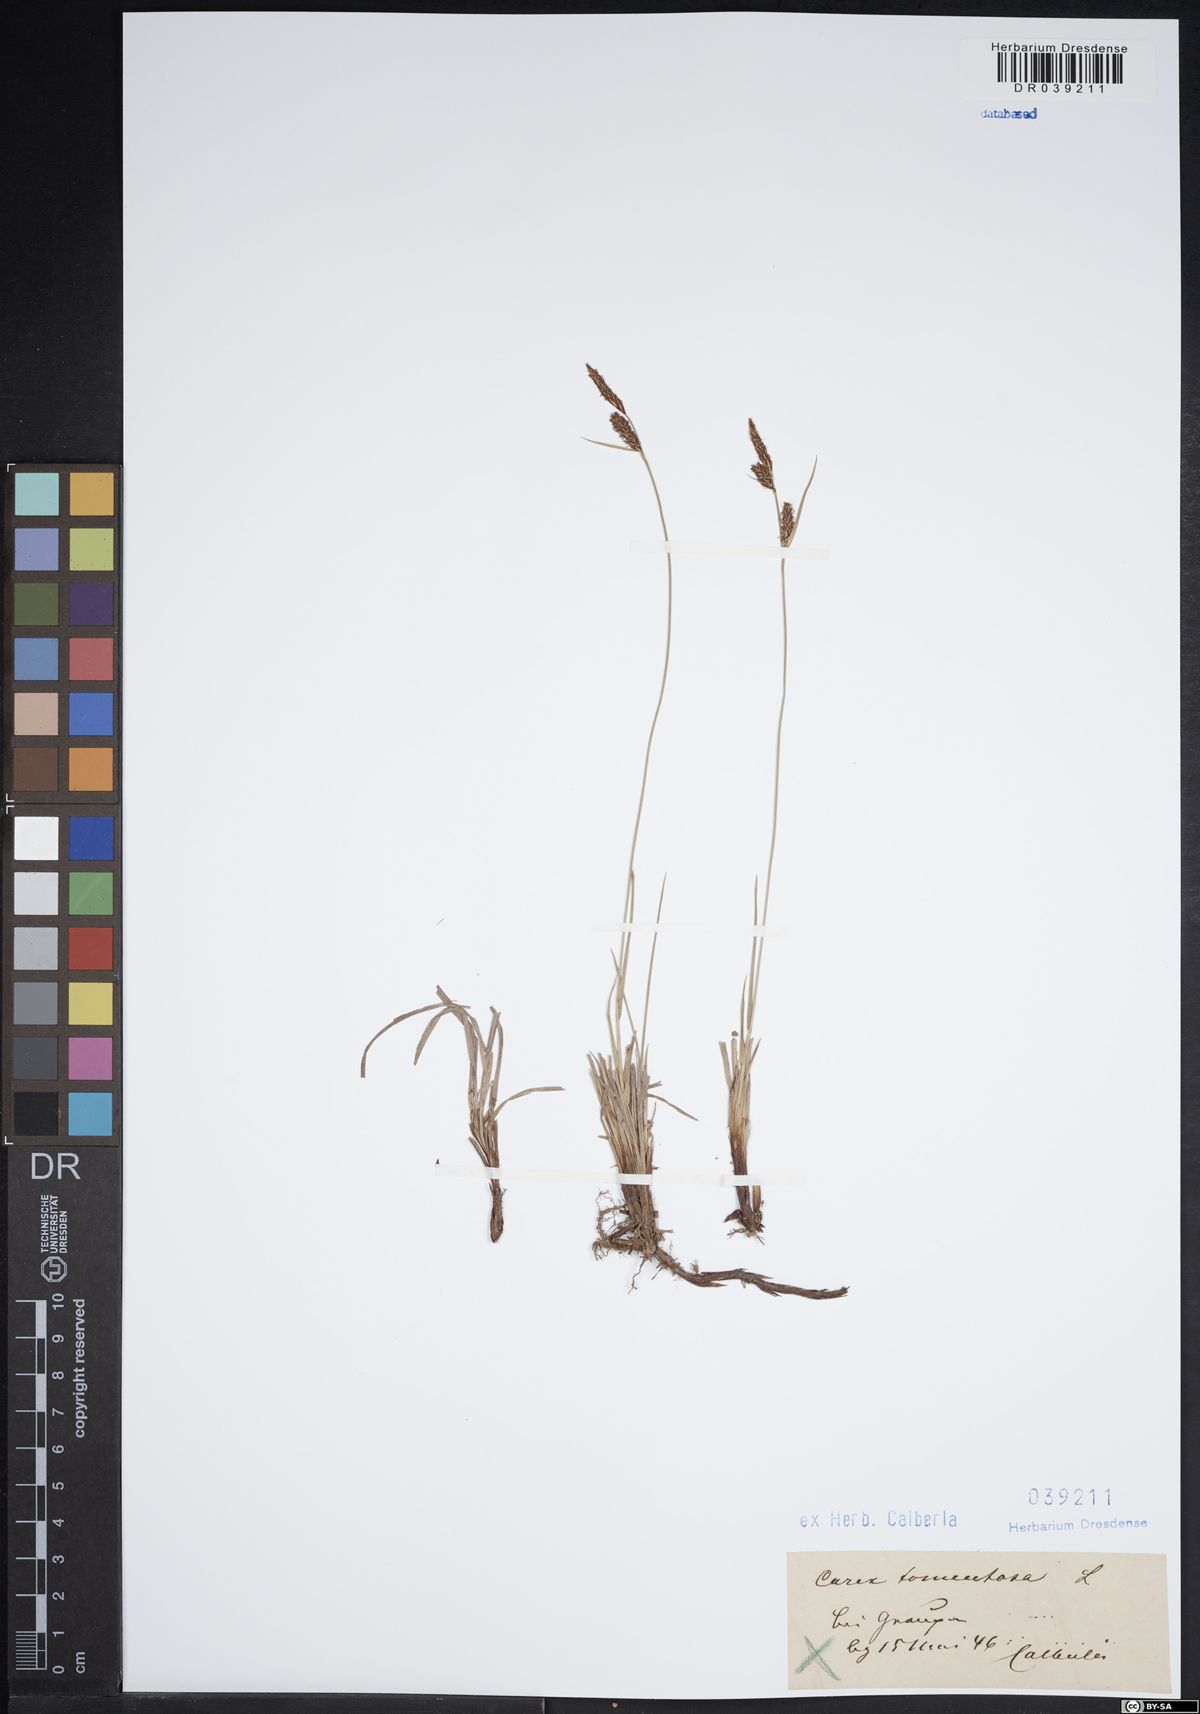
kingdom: Plantae
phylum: Tracheophyta
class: Liliopsida
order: Poales
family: Cyperaceae
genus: Carex
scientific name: Carex tomentosa
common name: Downy-fruited sedge
